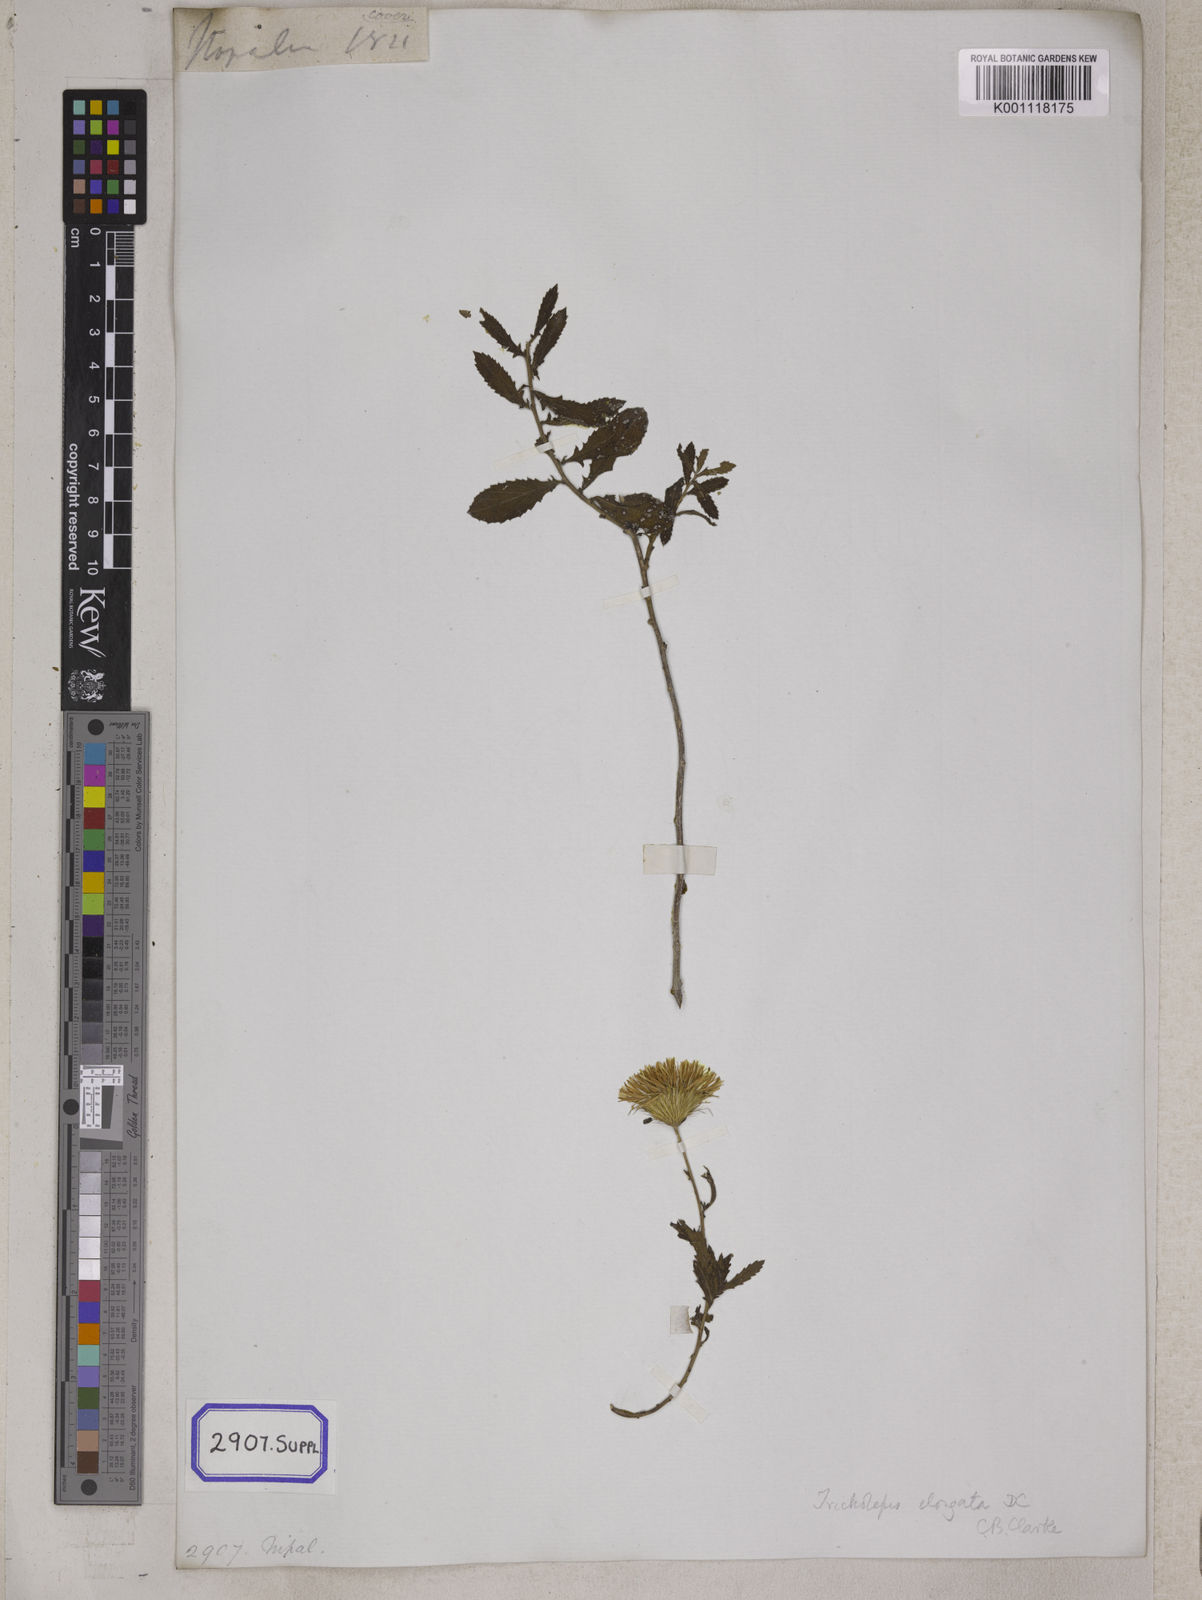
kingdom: Plantae
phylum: Tracheophyta
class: Magnoliopsida
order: Asterales
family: Asteraceae
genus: Tricholepis
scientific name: Tricholepis radicans
